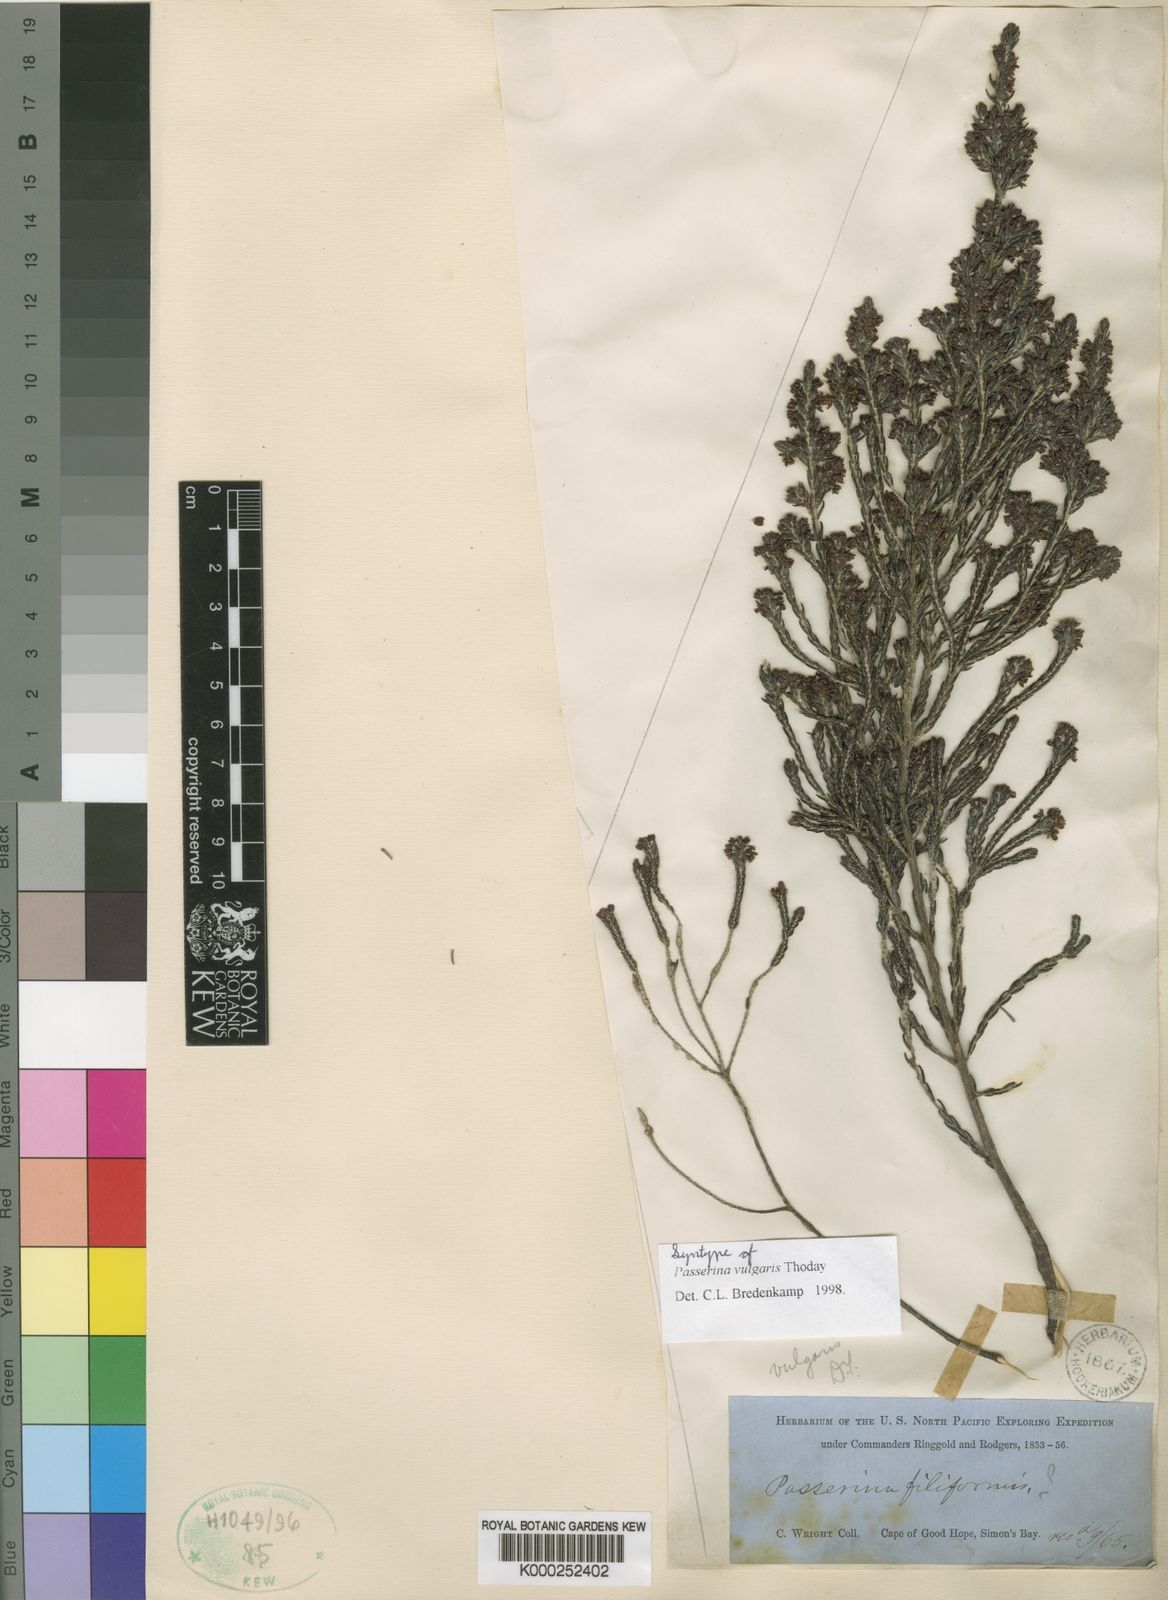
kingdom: Plantae
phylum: Tracheophyta
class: Magnoliopsida
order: Malvales
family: Thymelaeaceae
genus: Passerina
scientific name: Passerina corymbosa
